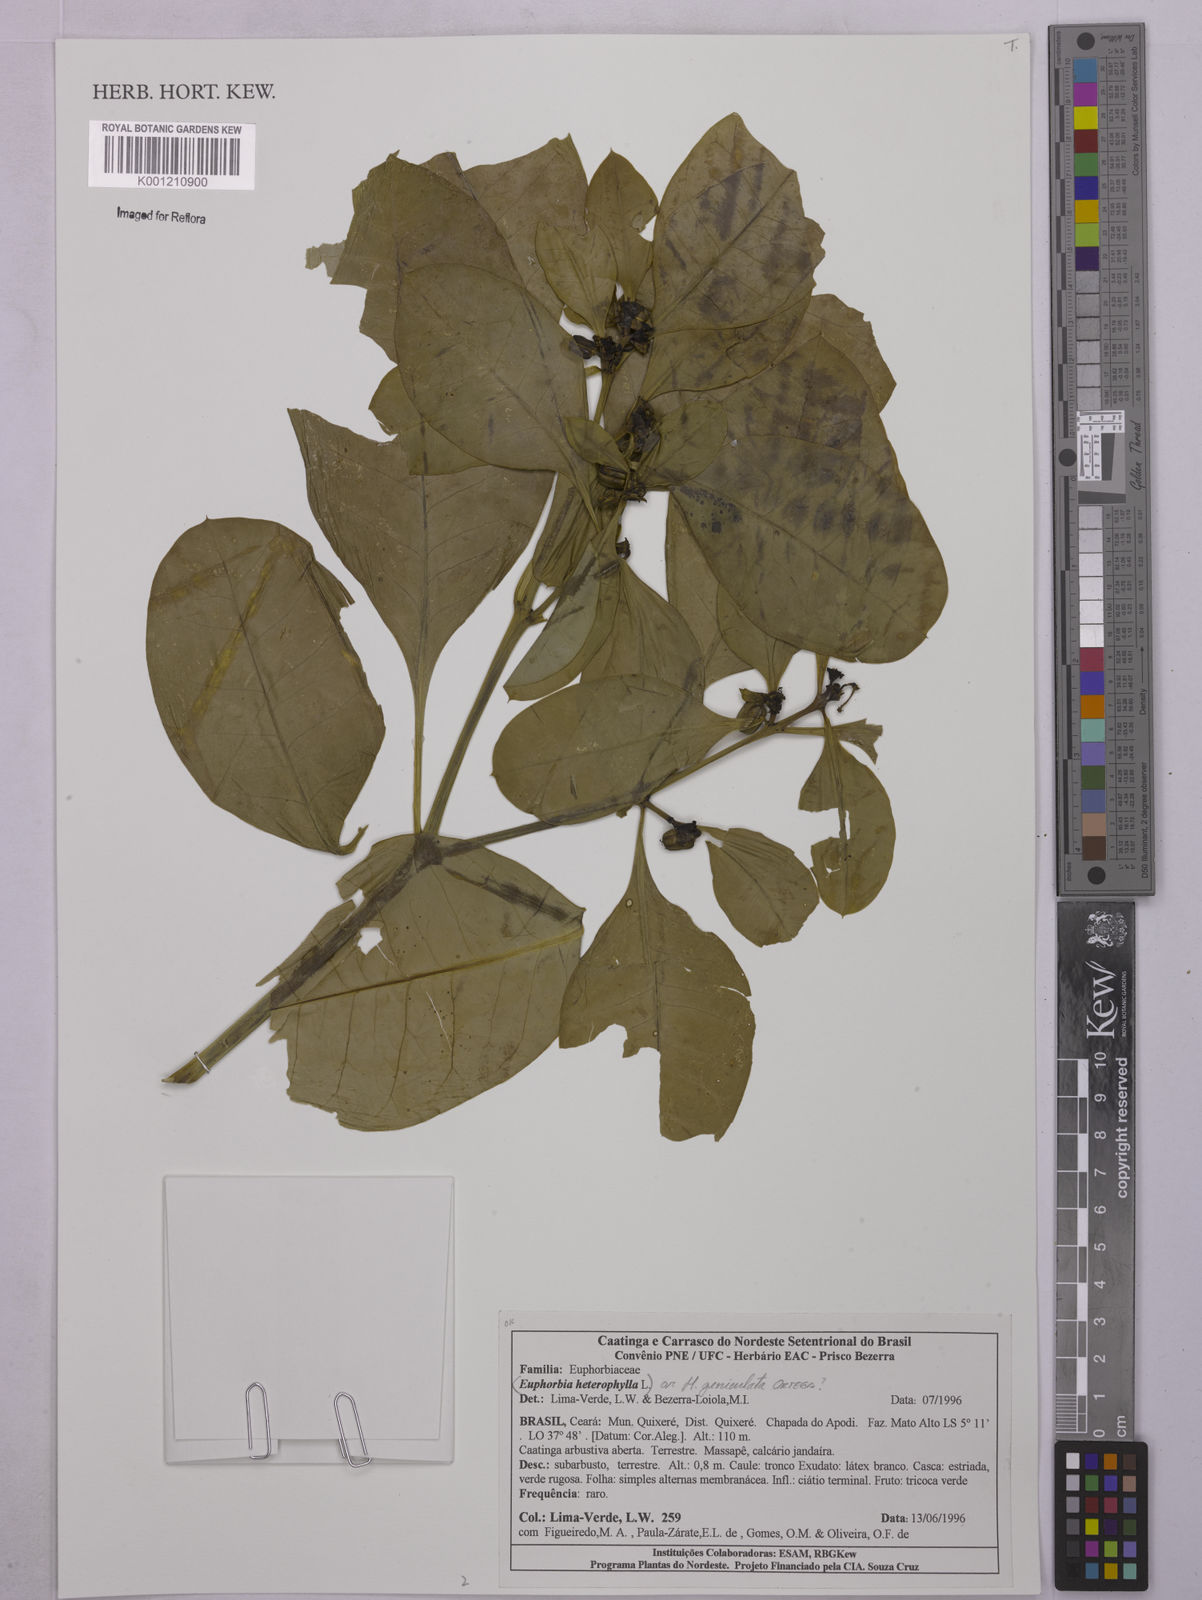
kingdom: Plantae
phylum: Tracheophyta
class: Magnoliopsida
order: Malpighiales
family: Euphorbiaceae
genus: Euphorbia
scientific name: Euphorbia heterophylla
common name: Mexican fireplant
